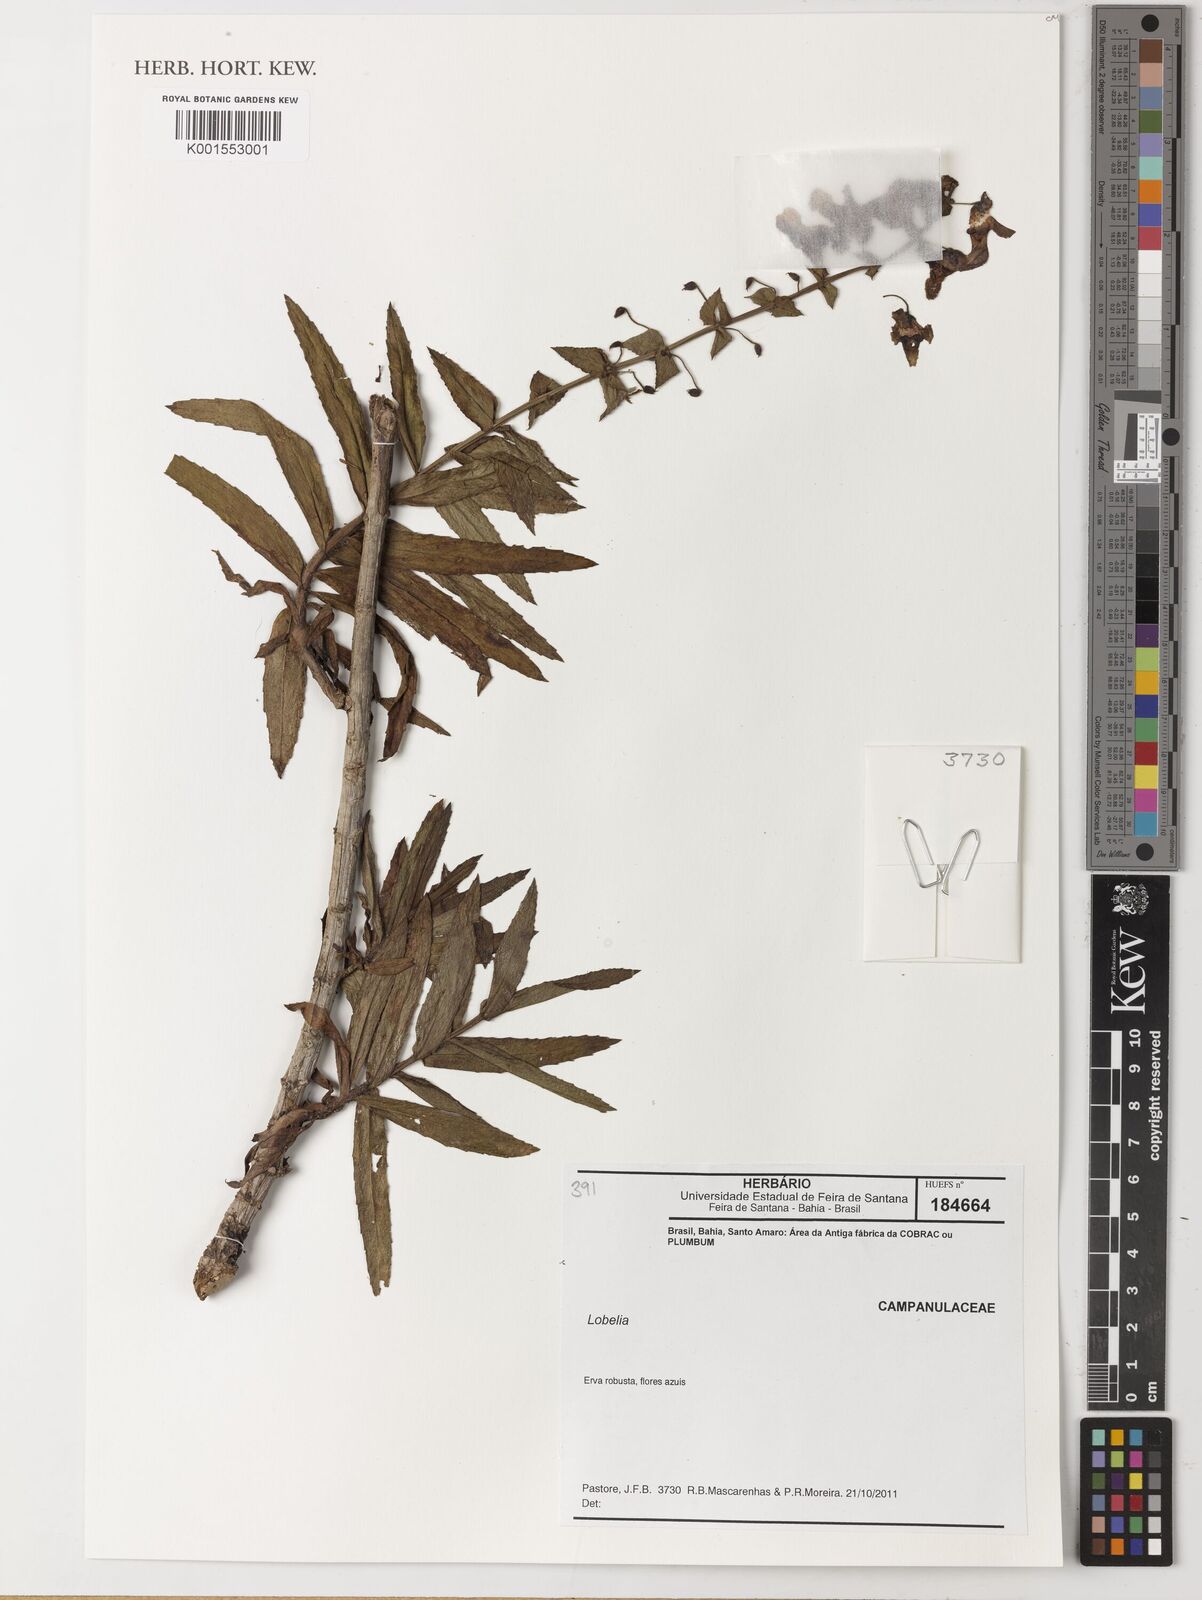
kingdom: Plantae
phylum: Tracheophyta
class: Magnoliopsida
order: Asterales
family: Campanulaceae
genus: Lobelia
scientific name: Lobelia
